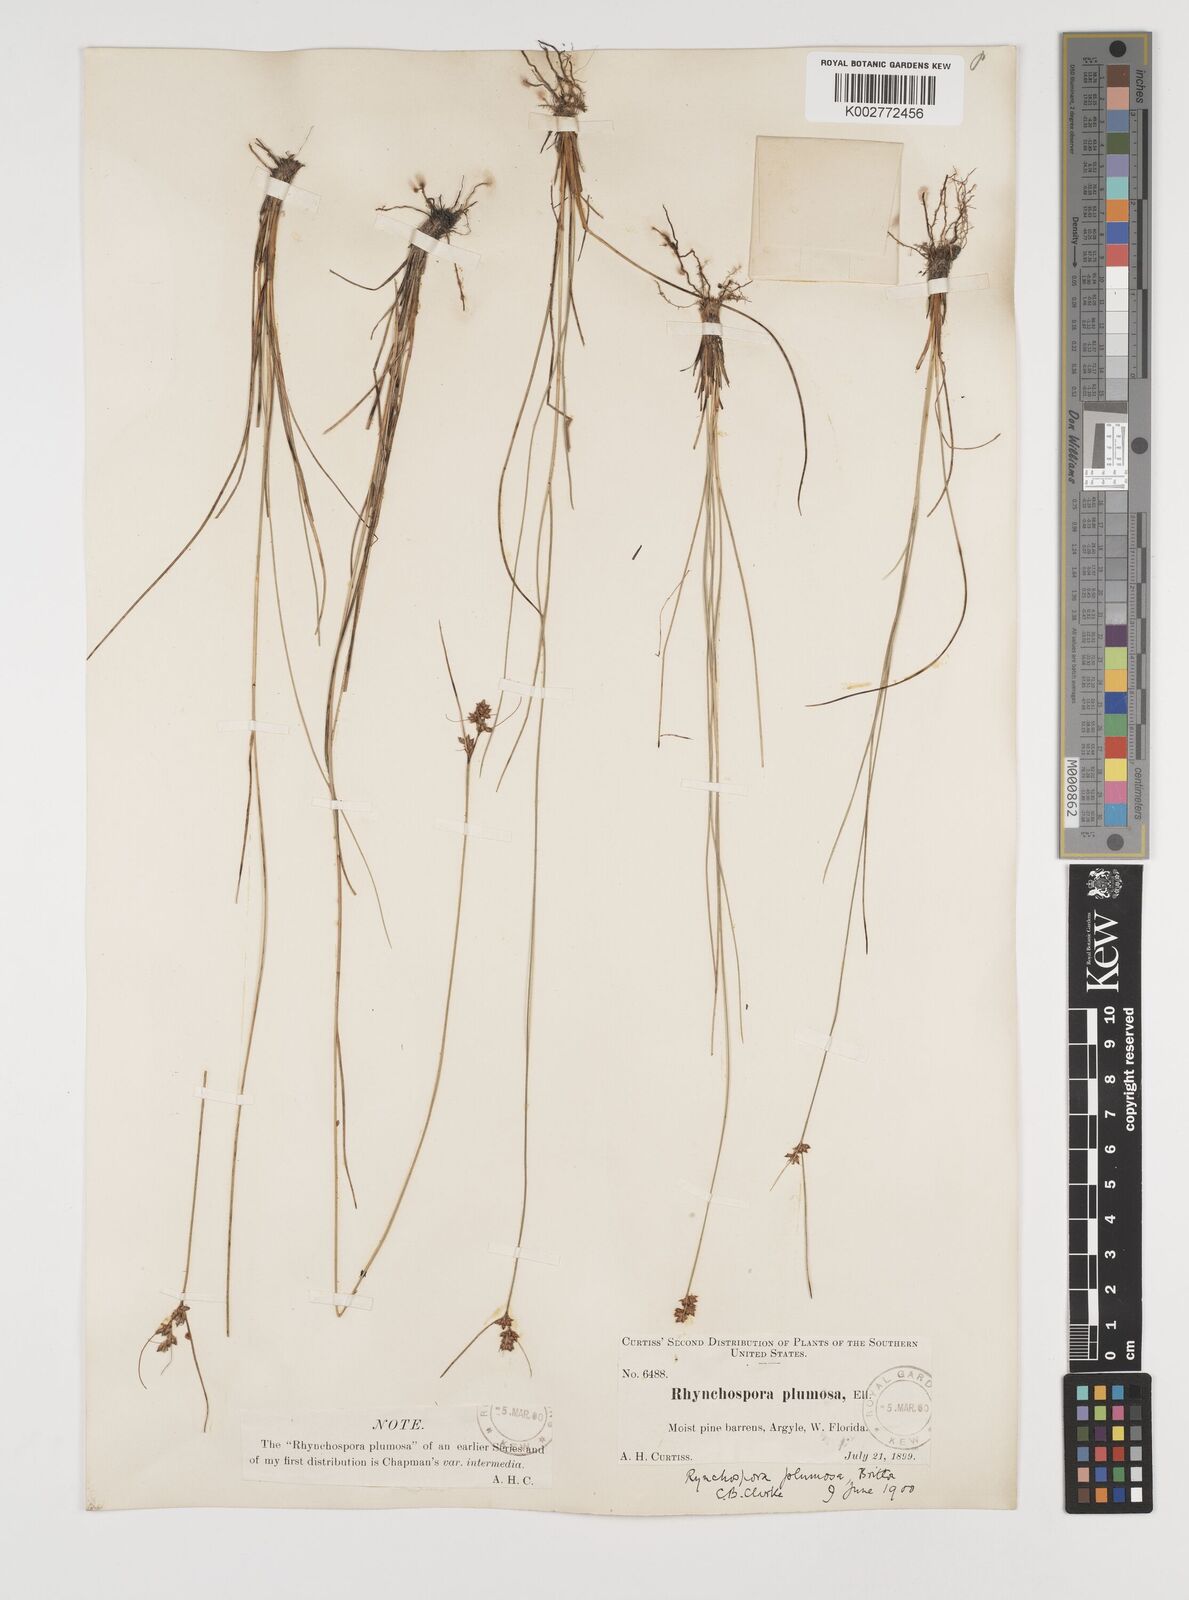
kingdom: Plantae
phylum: Tracheophyta
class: Liliopsida
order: Poales
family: Cyperaceae
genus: Rhynchospora
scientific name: Rhynchospora plumosa
